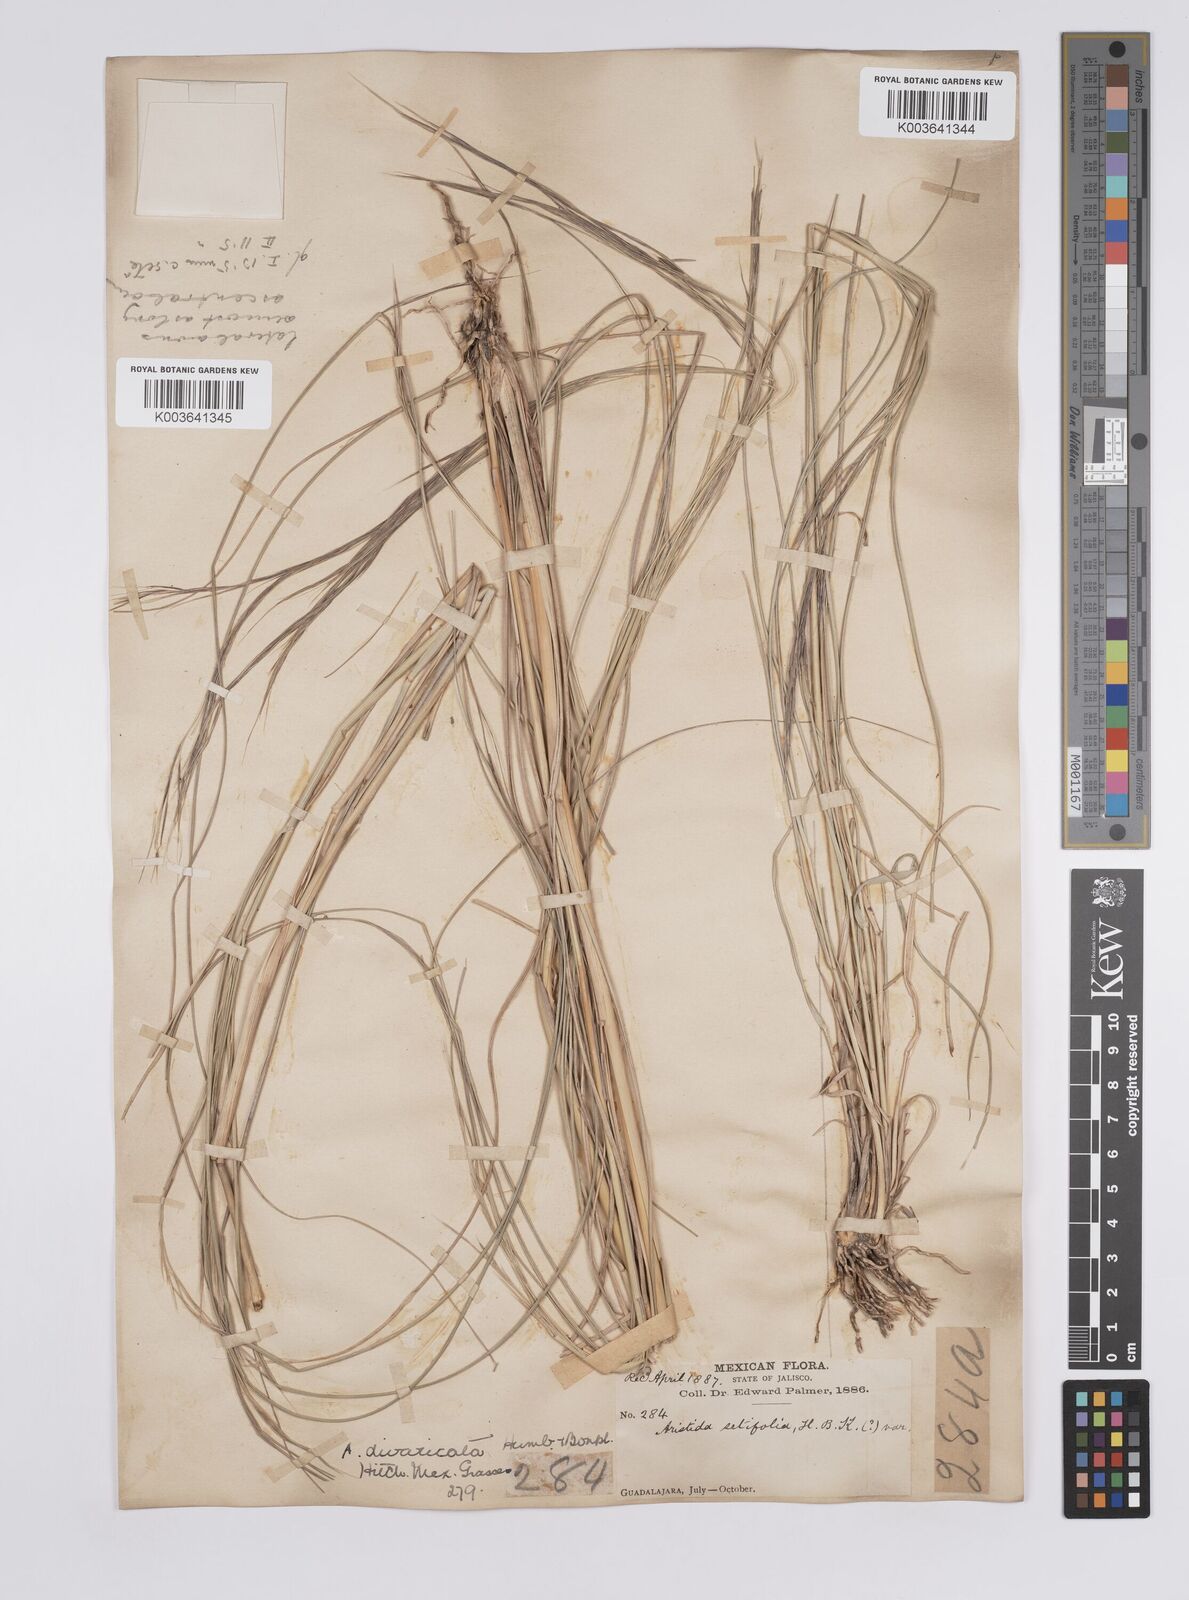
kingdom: Plantae
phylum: Tracheophyta
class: Liliopsida
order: Poales
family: Poaceae
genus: Aristida
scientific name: Aristida divaricata
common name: Poverty grass
